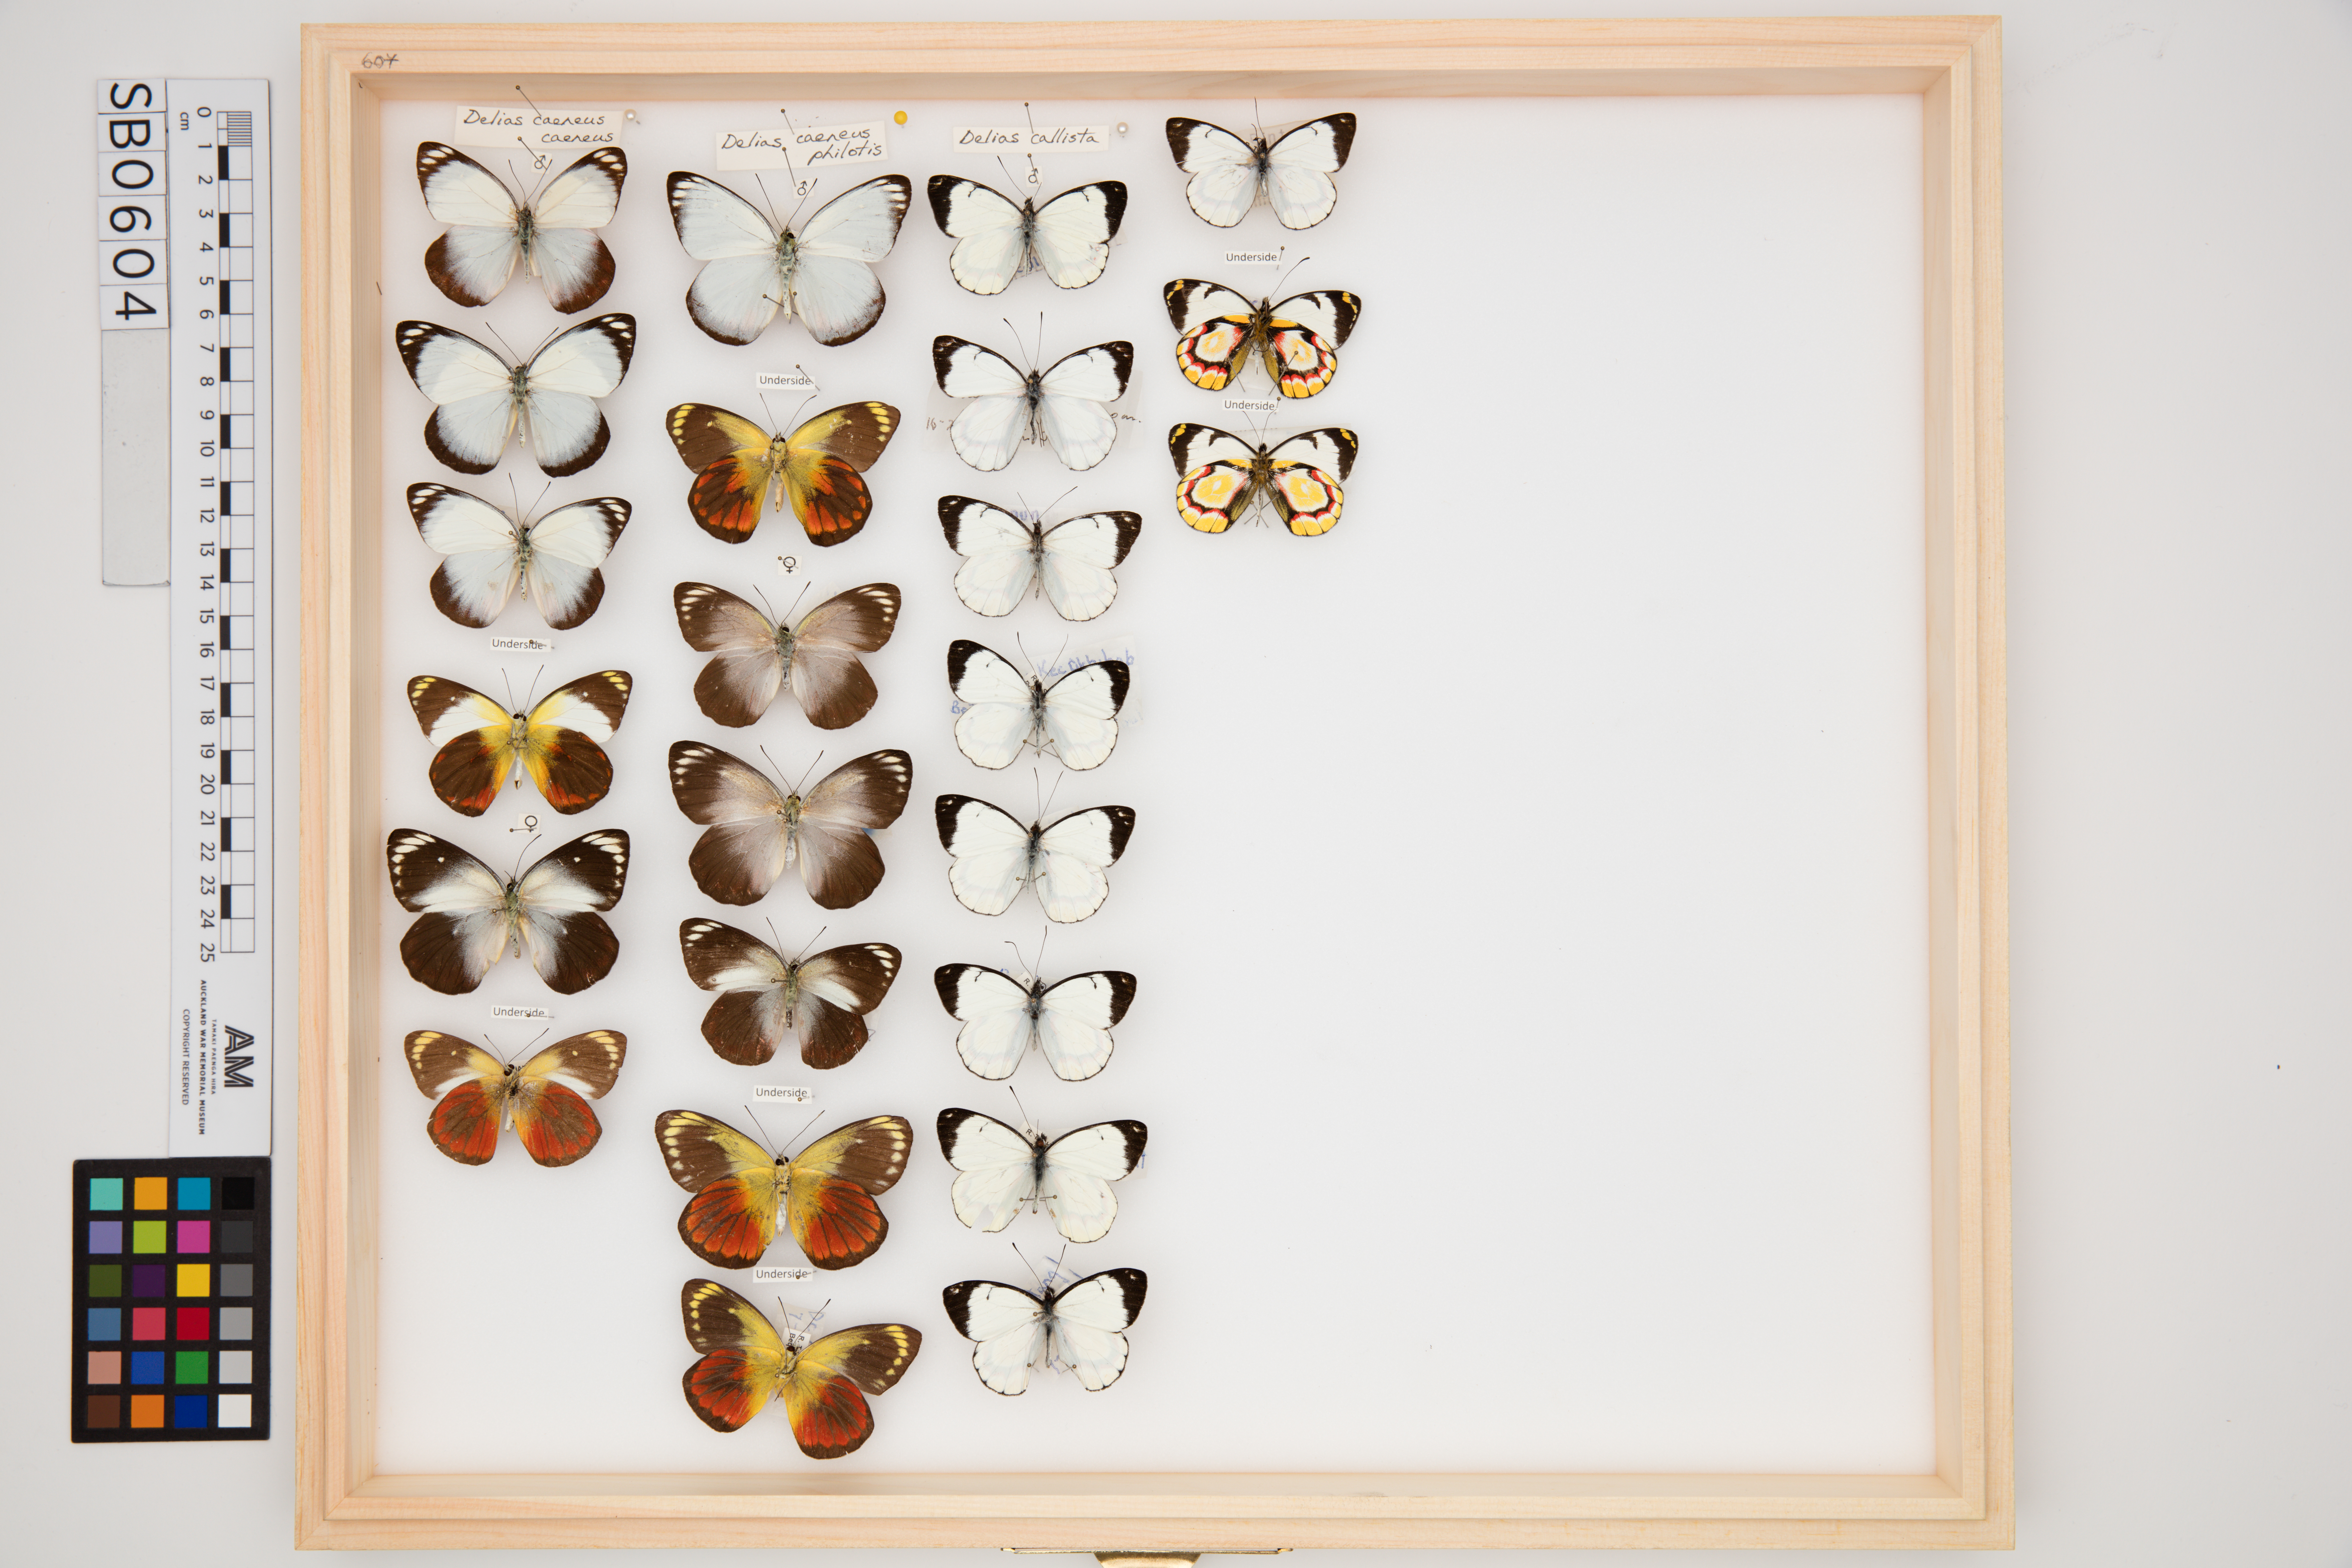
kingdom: Animalia
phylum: Arthropoda
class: Insecta
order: Lepidoptera
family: Pieridae
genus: Delias
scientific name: Delias caeneus
